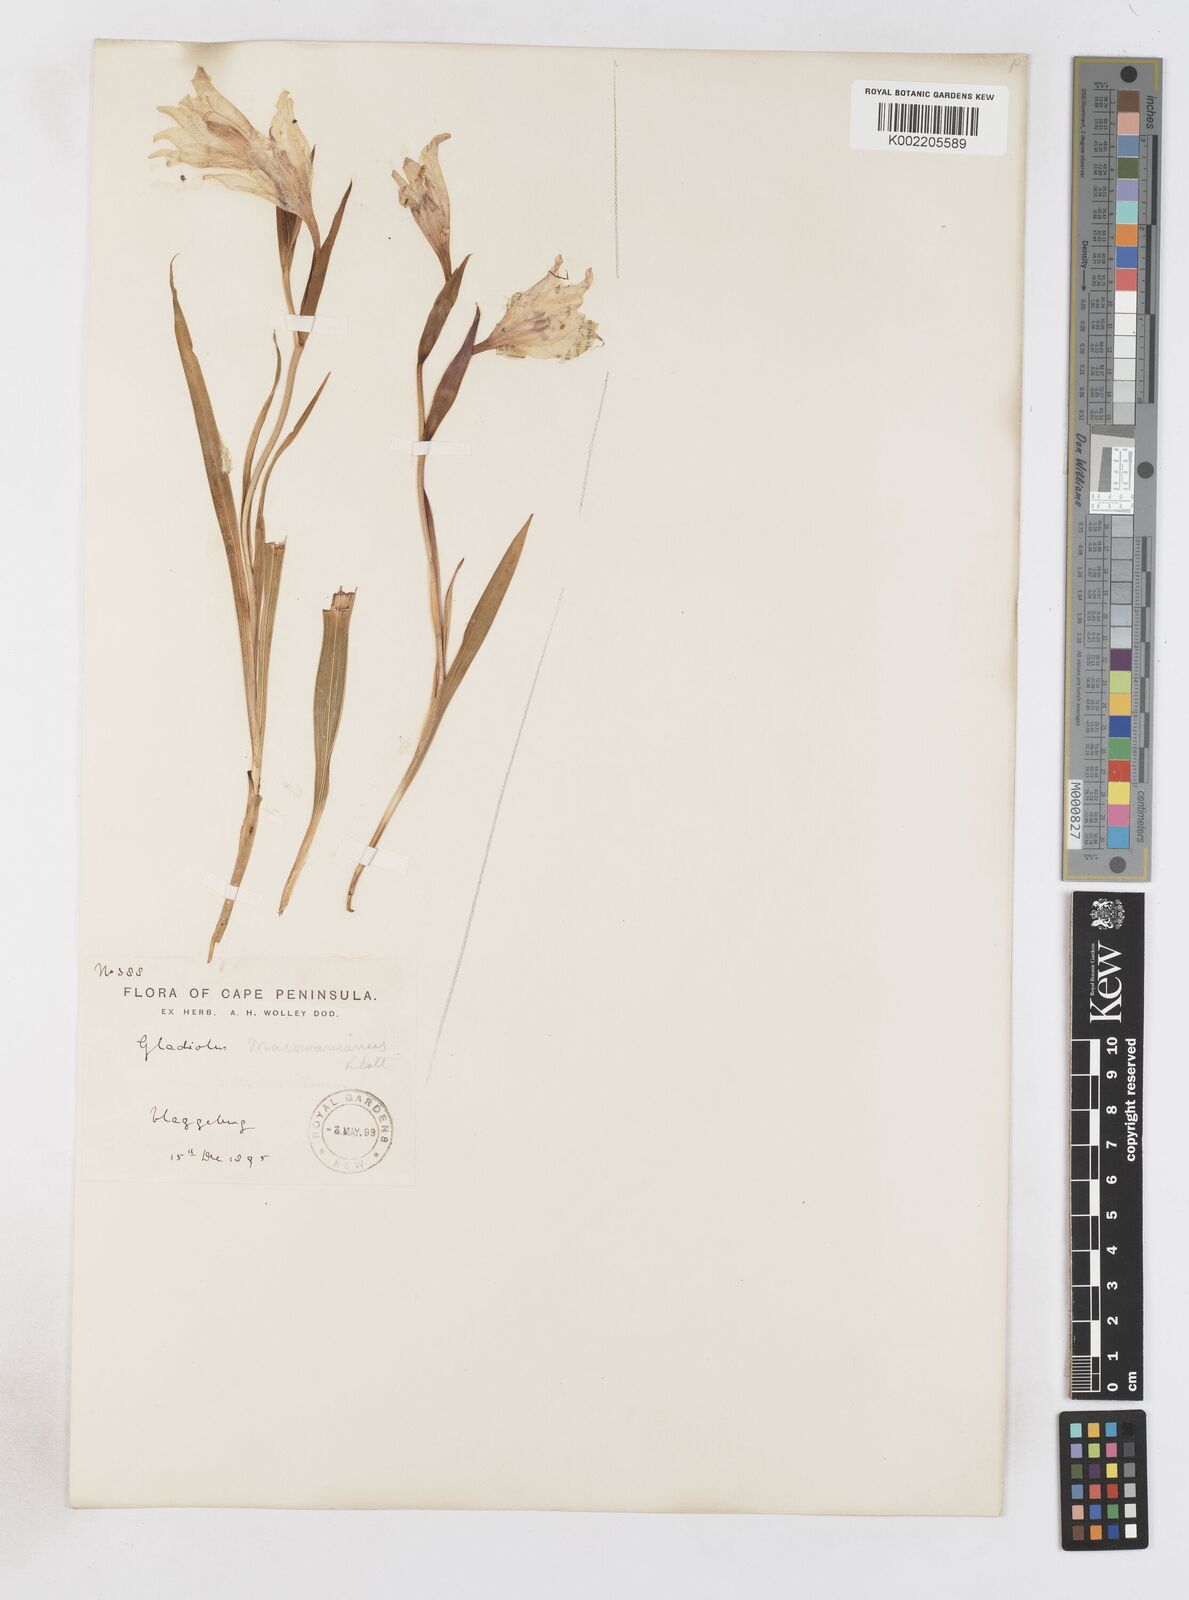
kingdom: Plantae
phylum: Tracheophyta
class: Liliopsida
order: Asparagales
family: Iridaceae
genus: Gladiolus
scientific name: Gladiolus carneus
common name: Painted-lady
